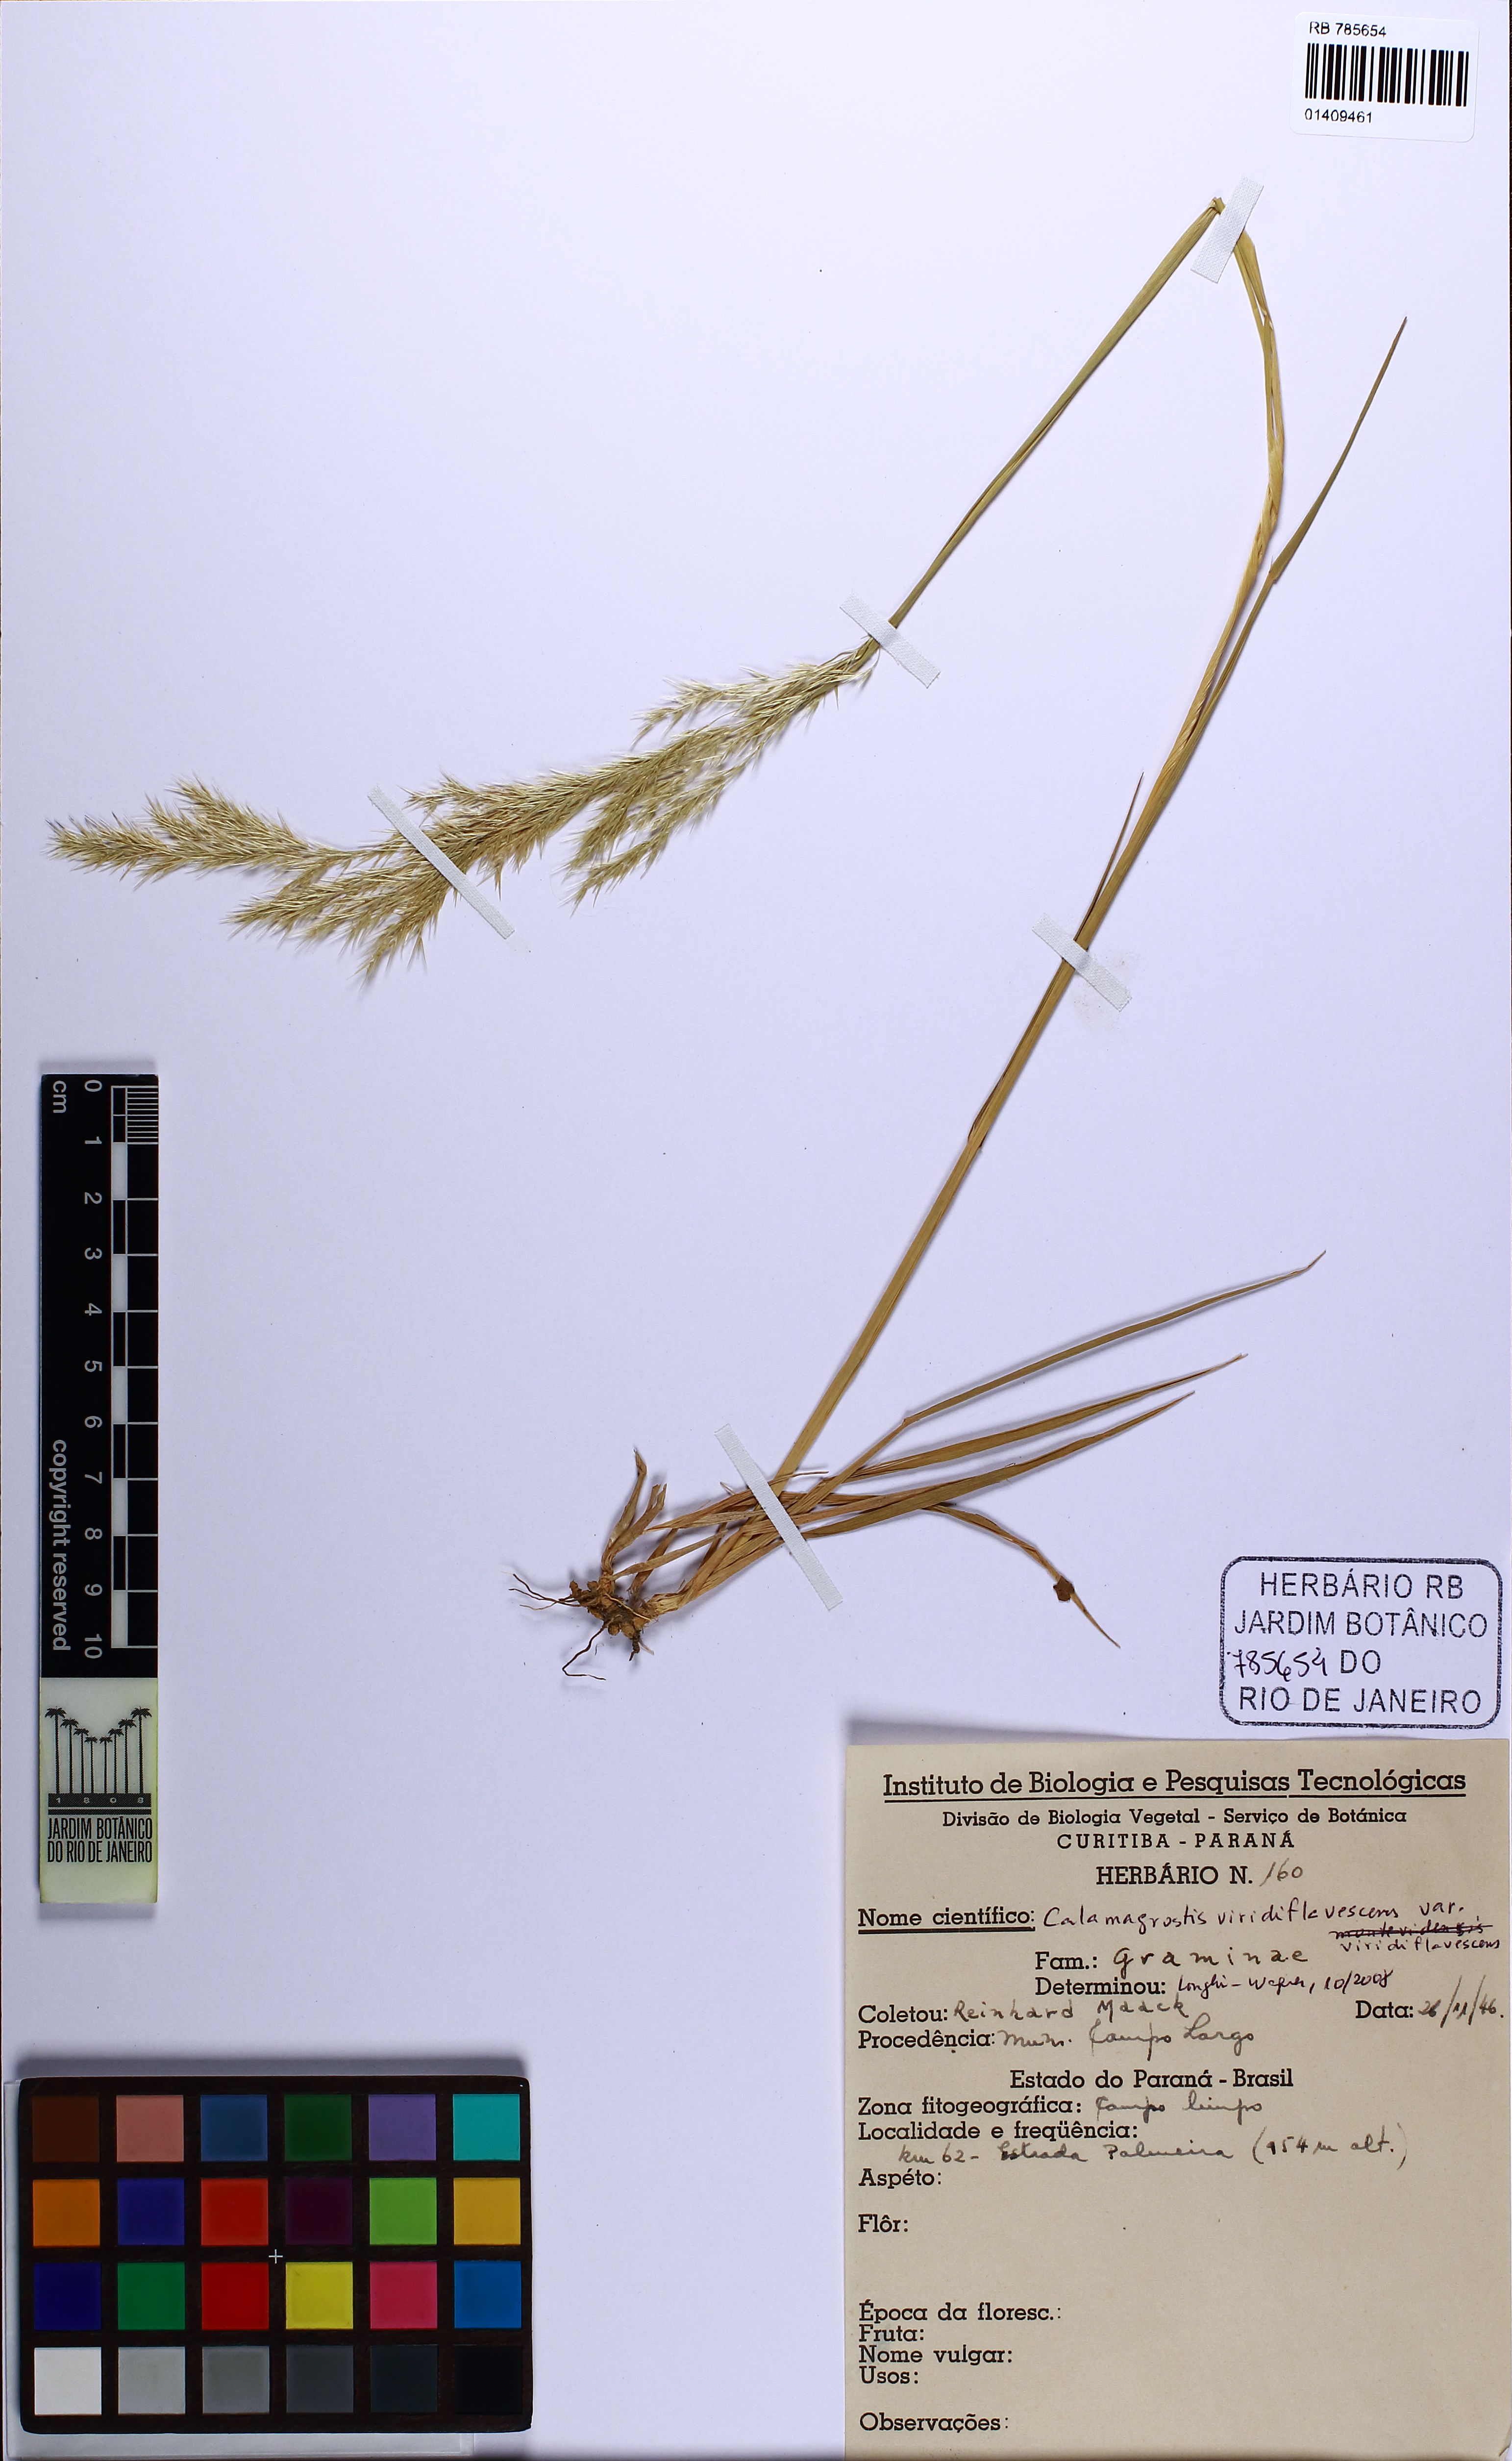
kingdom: Plantae
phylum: Tracheophyta
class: Liliopsida
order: Poales
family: Poaceae
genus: Cinnagrostis
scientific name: Cinnagrostis viridiflavescens
